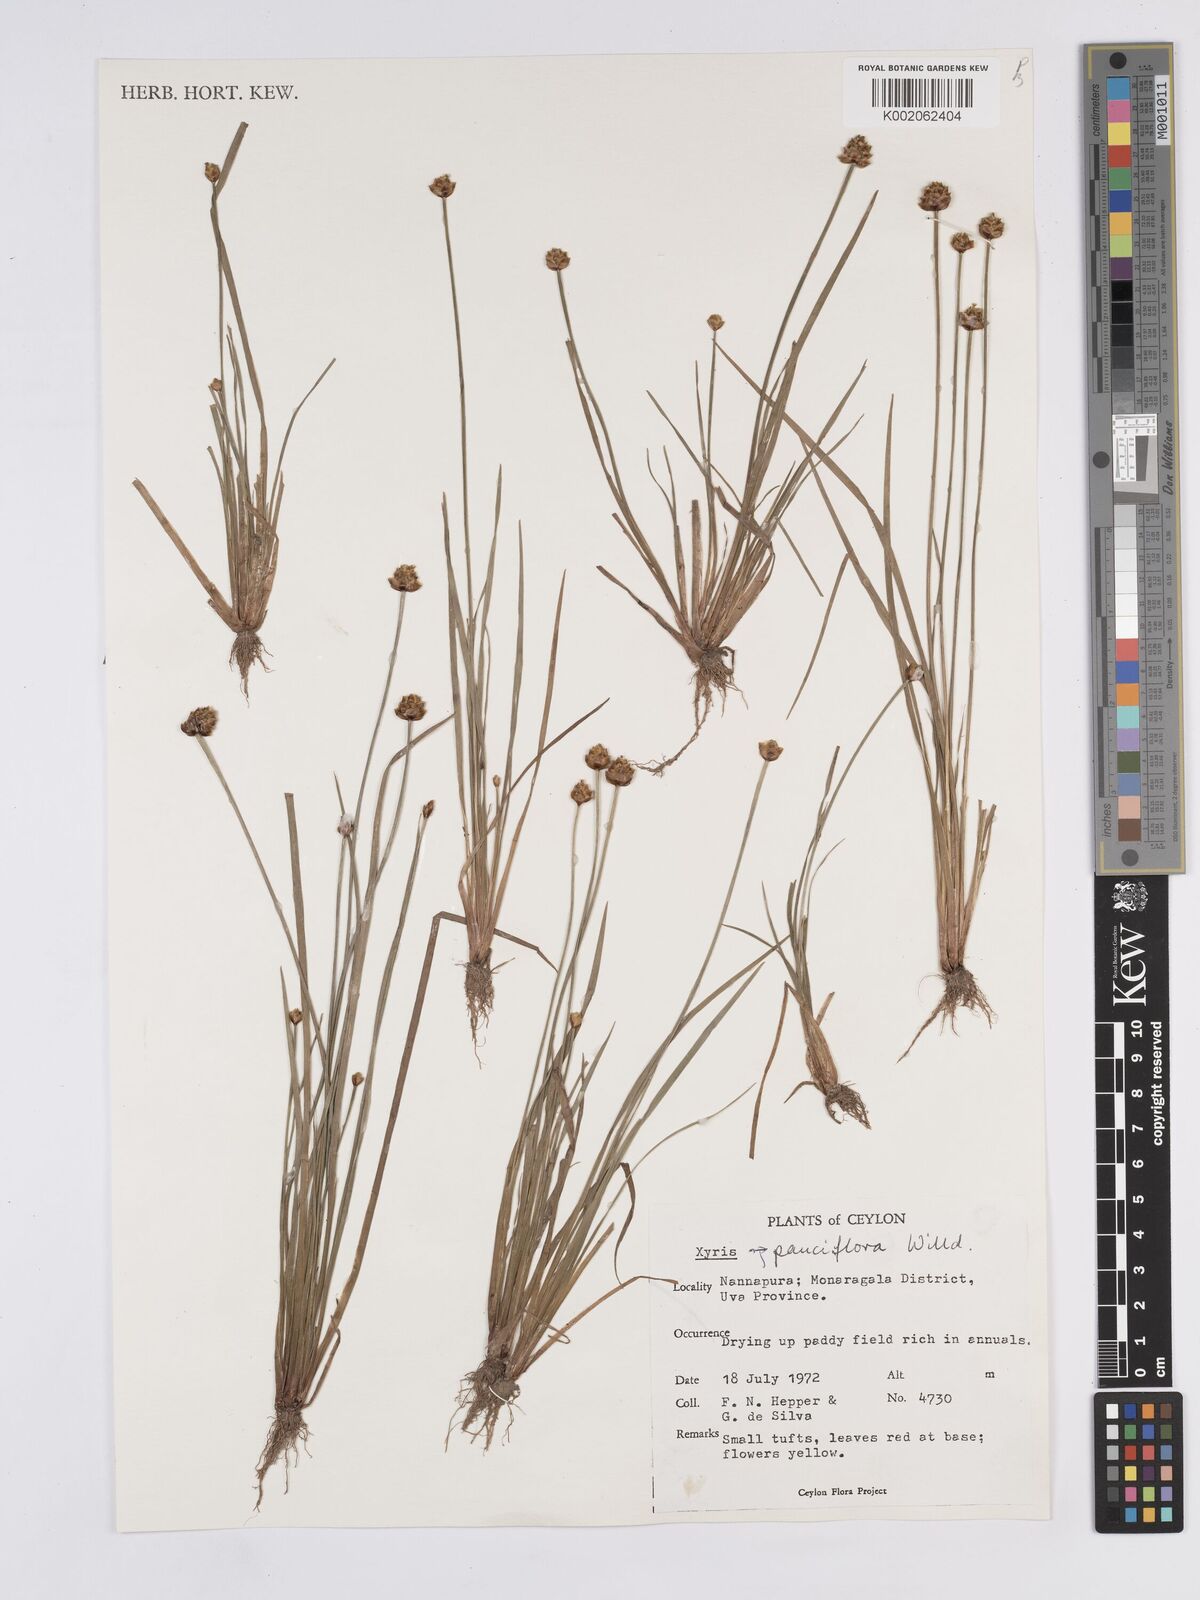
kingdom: Plantae
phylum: Tracheophyta
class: Liliopsida
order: Poales
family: Xyridaceae
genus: Xyris
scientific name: Xyris pauciflora
